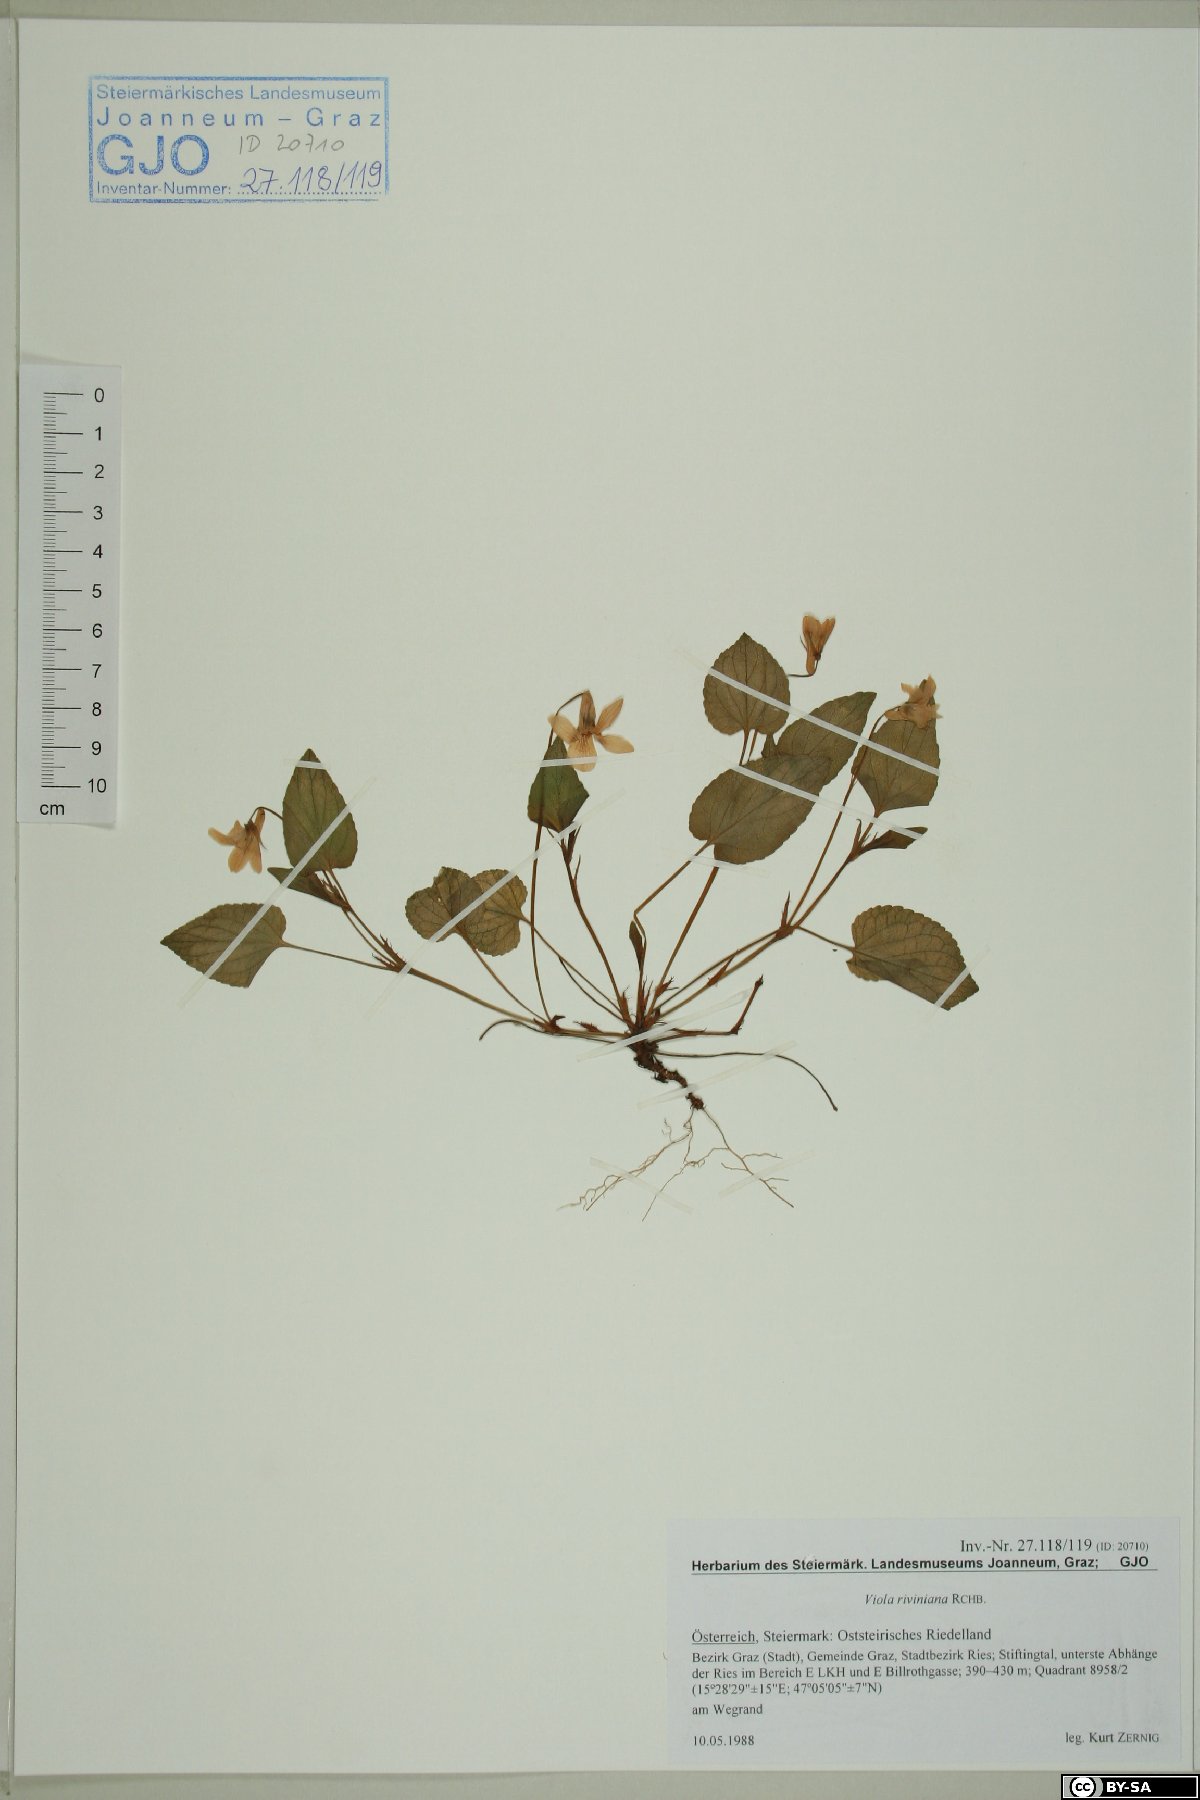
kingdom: Plantae
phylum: Tracheophyta
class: Magnoliopsida
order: Malpighiales
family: Violaceae
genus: Viola
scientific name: Viola riviniana
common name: Common dog-violet
